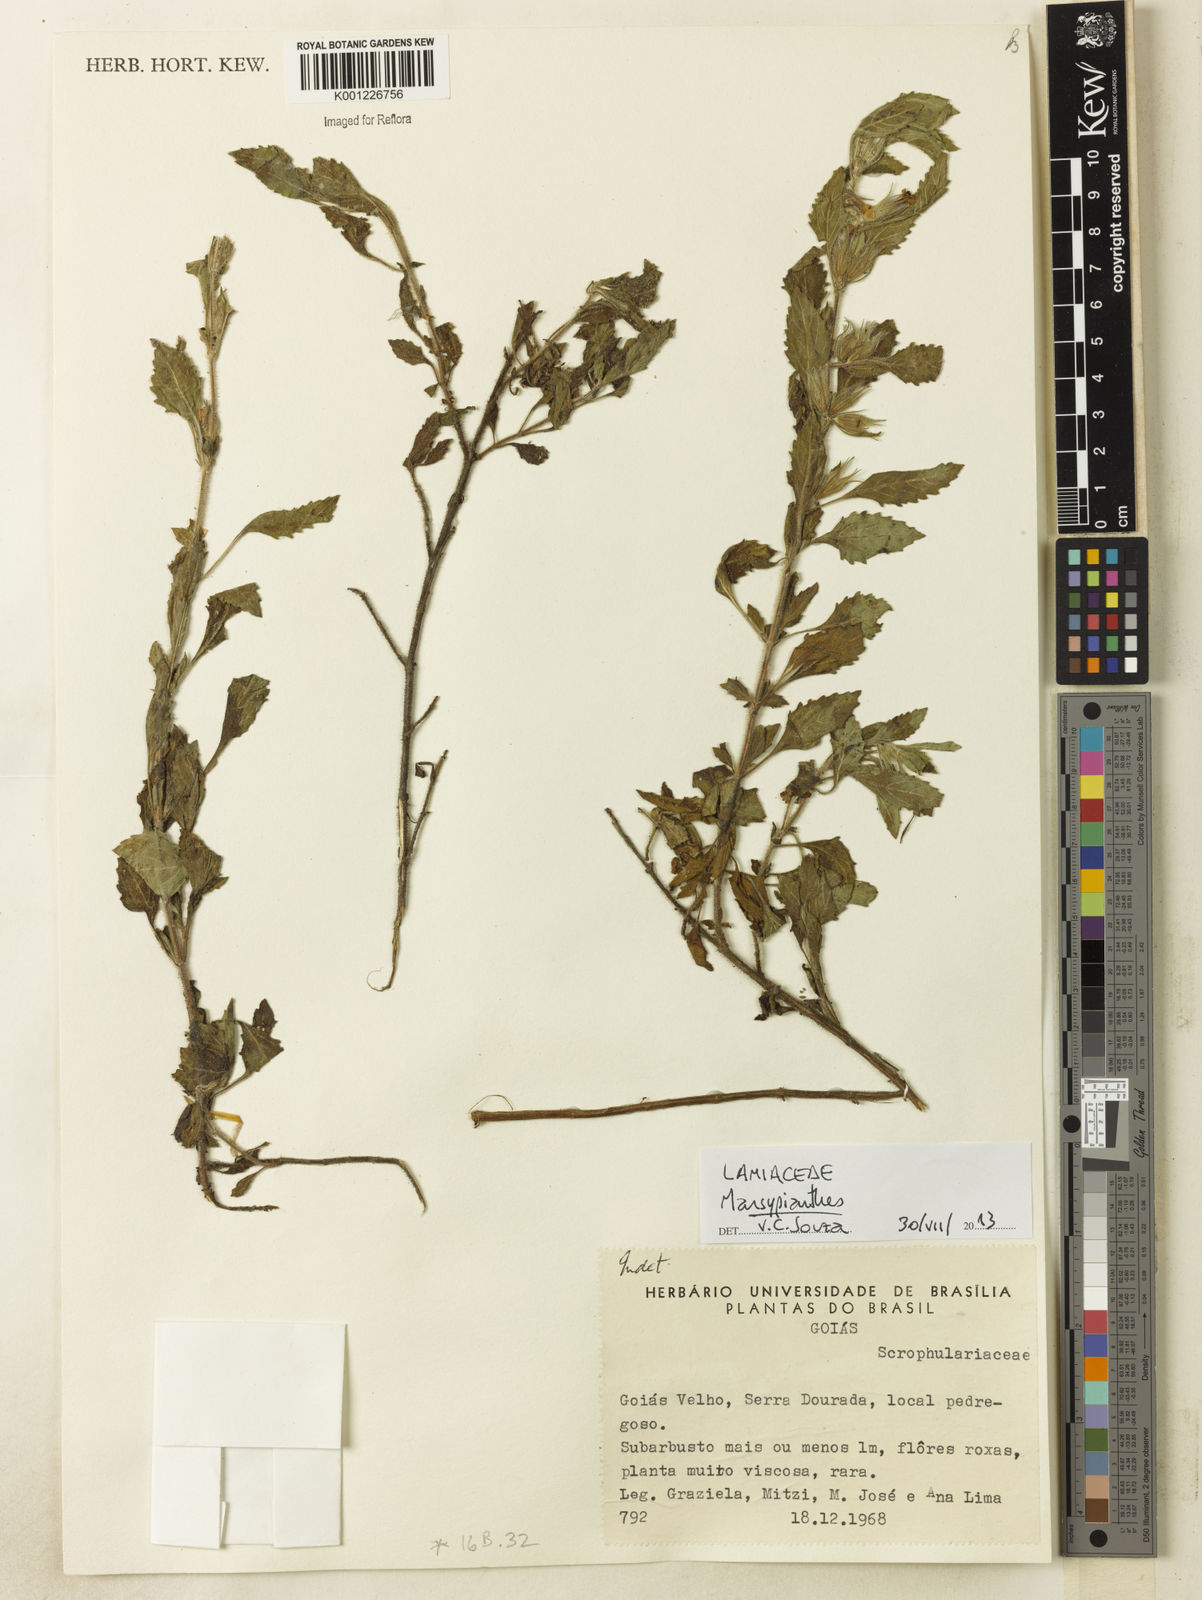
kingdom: Plantae
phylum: Tracheophyta
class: Magnoliopsida
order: Lamiales
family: Lamiaceae
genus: Marsypianthes
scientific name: Marsypianthes
